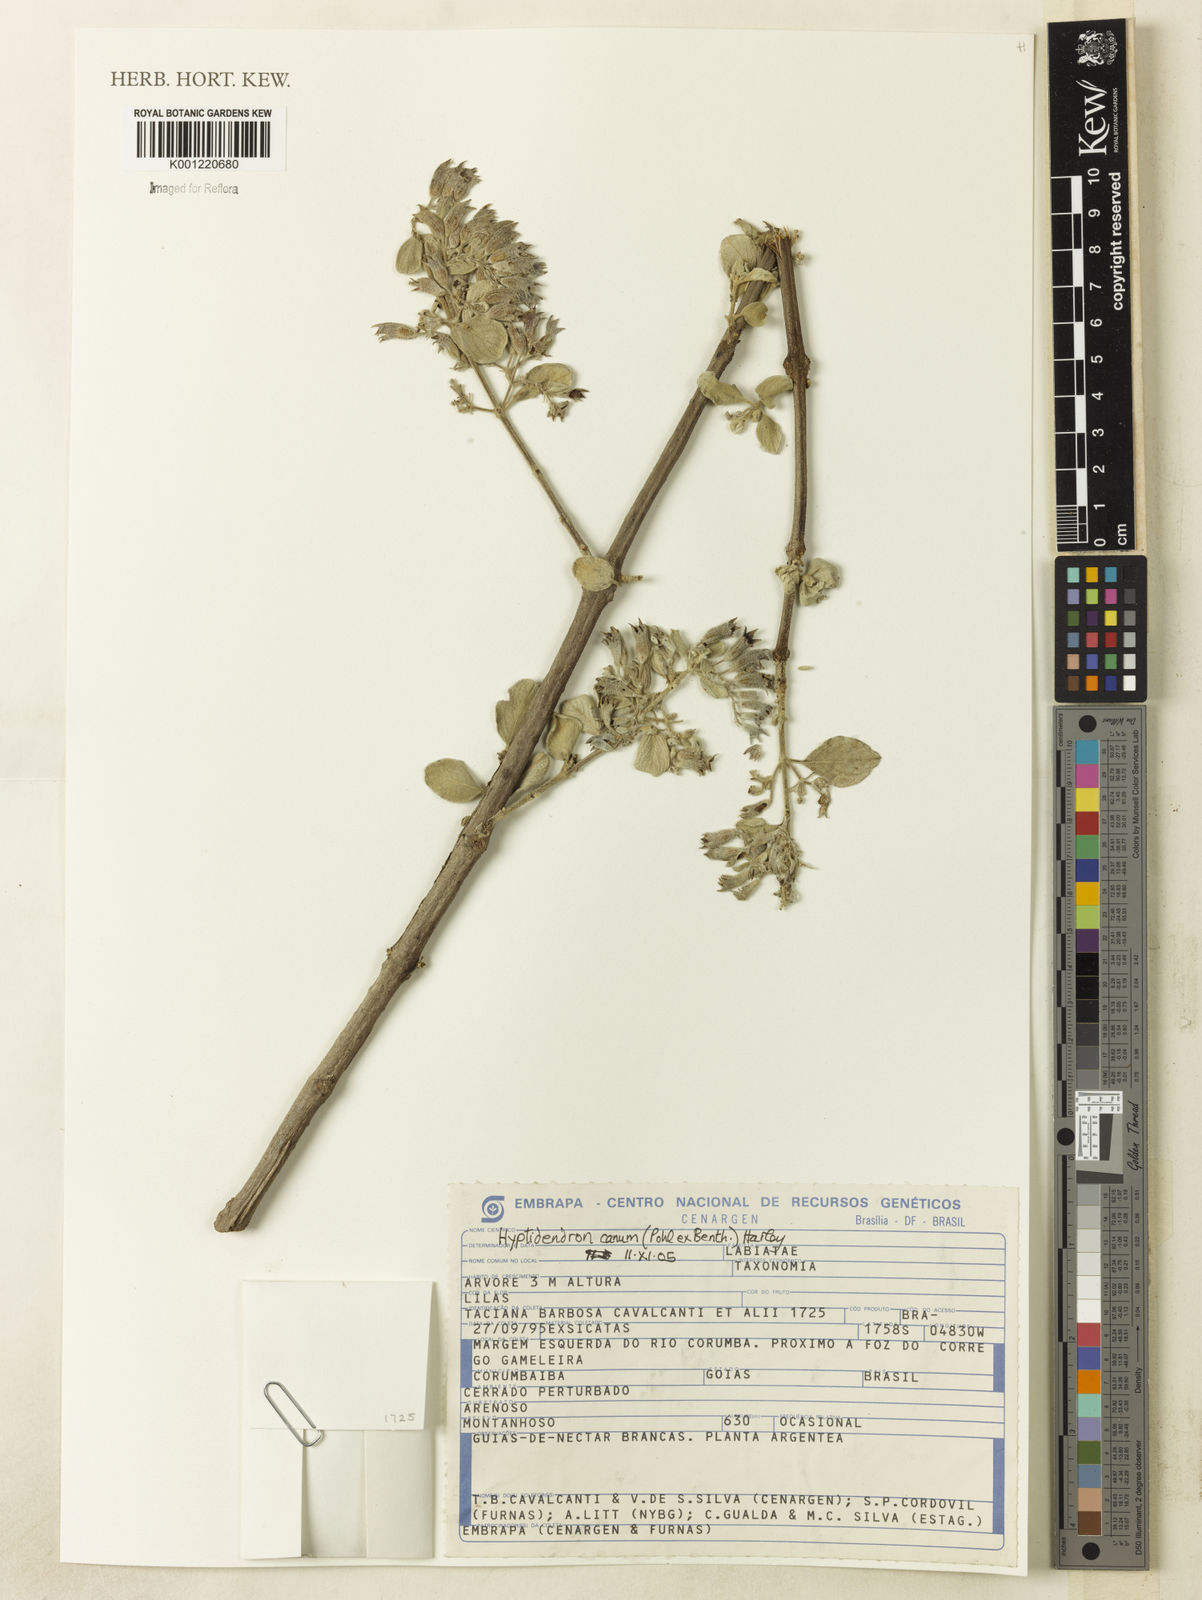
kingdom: Plantae
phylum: Tracheophyta
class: Magnoliopsida
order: Lamiales
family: Lamiaceae
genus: Hyptidendron
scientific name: Hyptidendron canum
